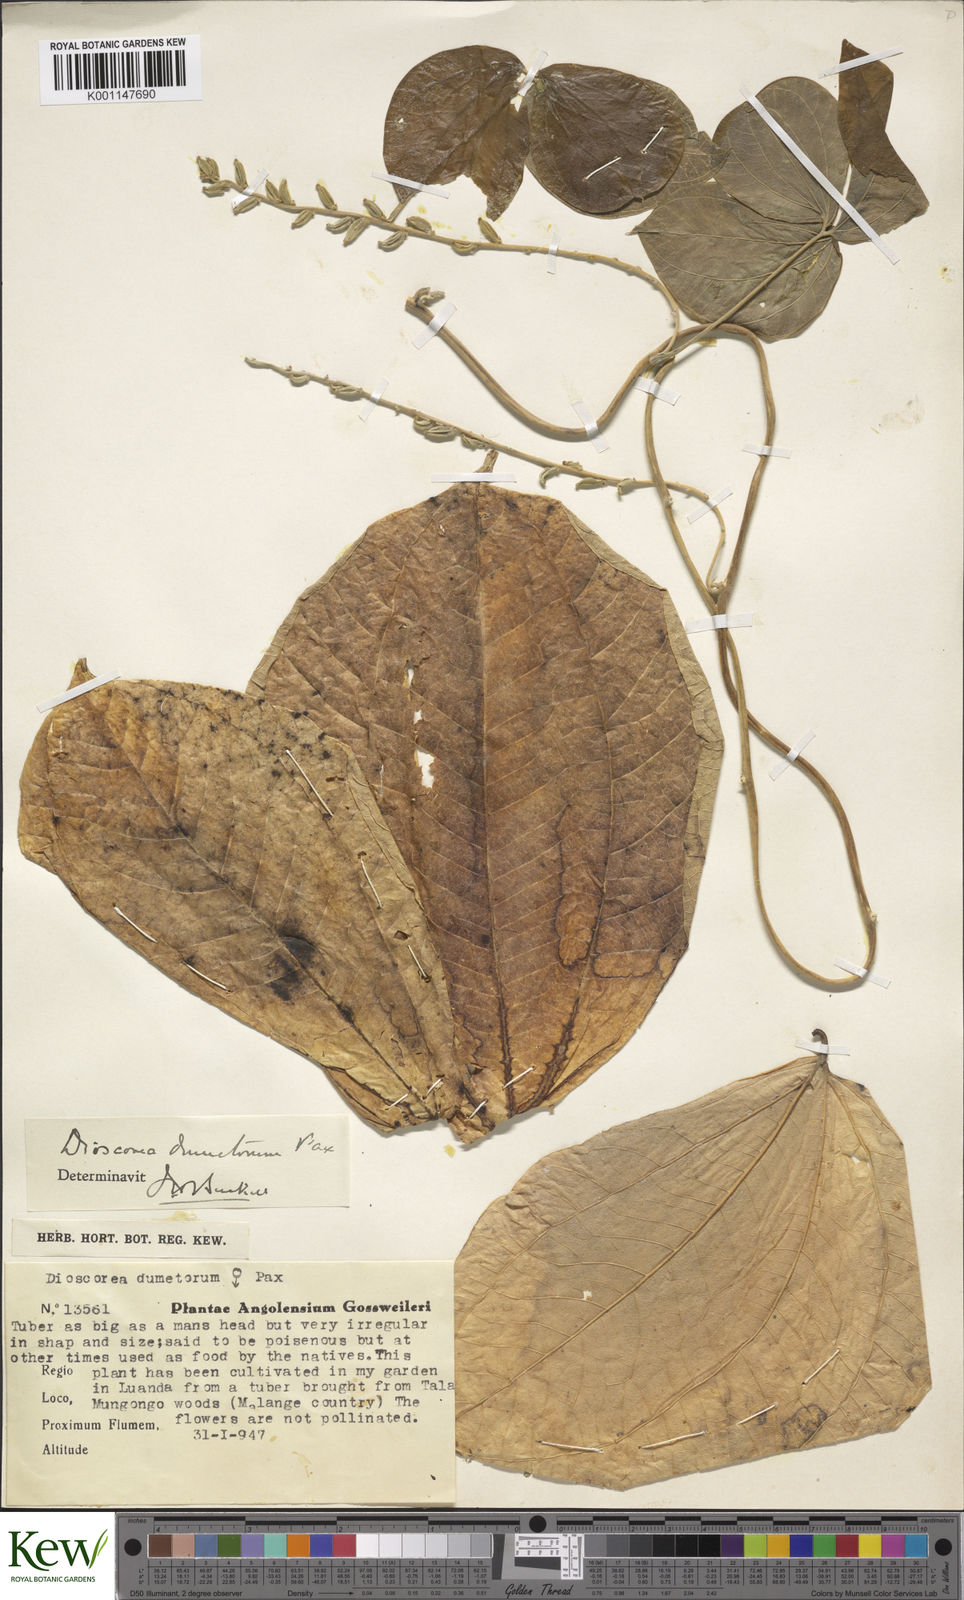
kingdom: Plantae
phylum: Tracheophyta
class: Liliopsida
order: Dioscoreales
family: Dioscoreaceae
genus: Dioscorea
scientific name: Dioscorea dumetorum
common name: African bitter yam
